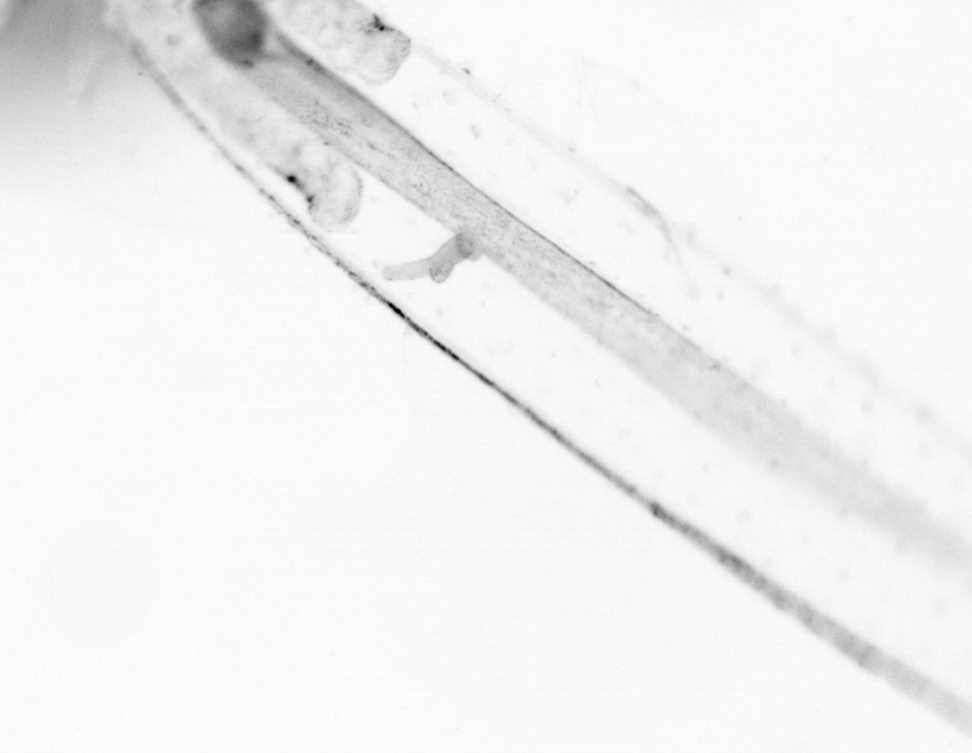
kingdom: Animalia
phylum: Chordata
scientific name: Chordata
